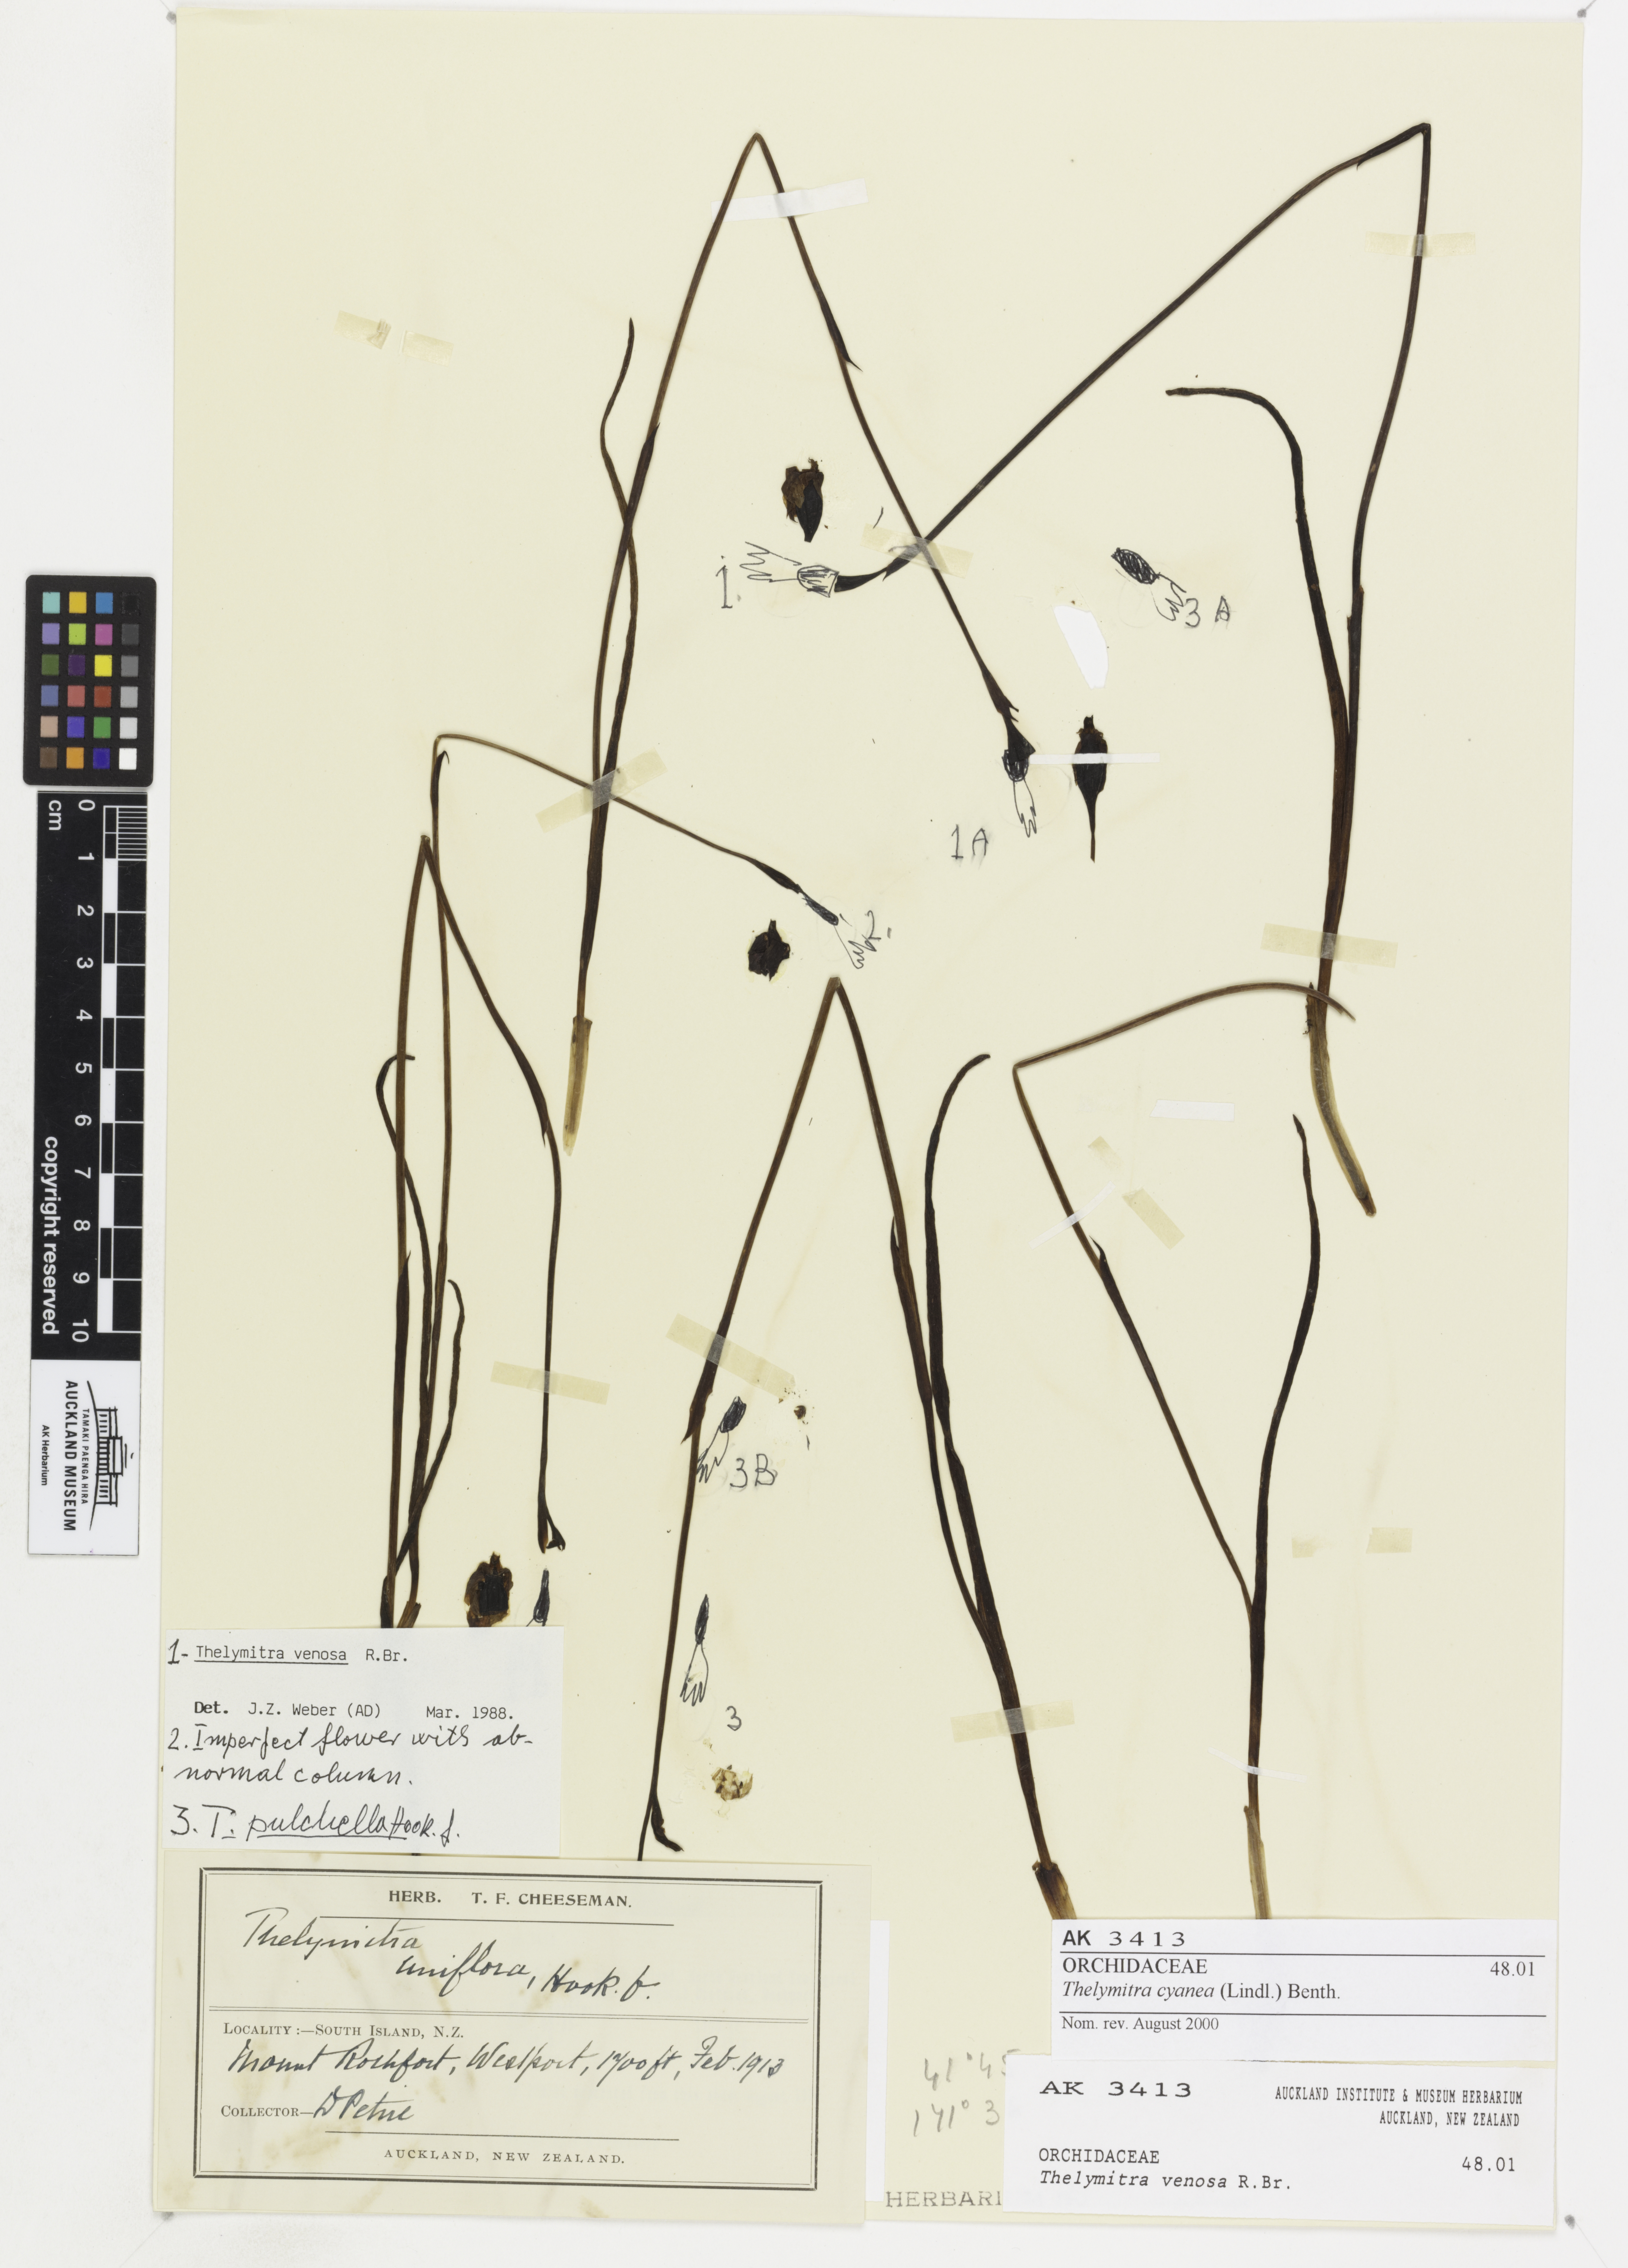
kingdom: Plantae
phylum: Tracheophyta
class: Liliopsida
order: Asparagales
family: Orchidaceae
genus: Thelymitra
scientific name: Thelymitra cyanea
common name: Blue sun-orchid
